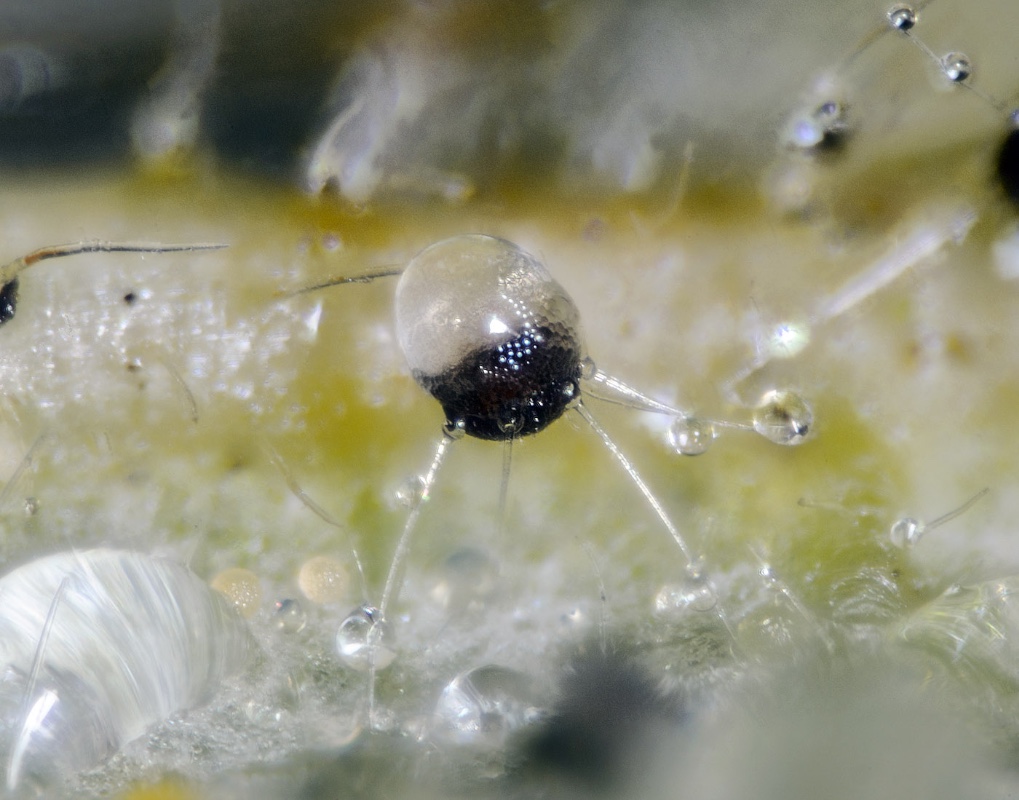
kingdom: Fungi
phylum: Ascomycota
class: Leotiomycetes
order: Helotiales
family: Erysiphaceae
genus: Phyllactinia
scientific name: Phyllactinia guttata
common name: hassel-meldug
